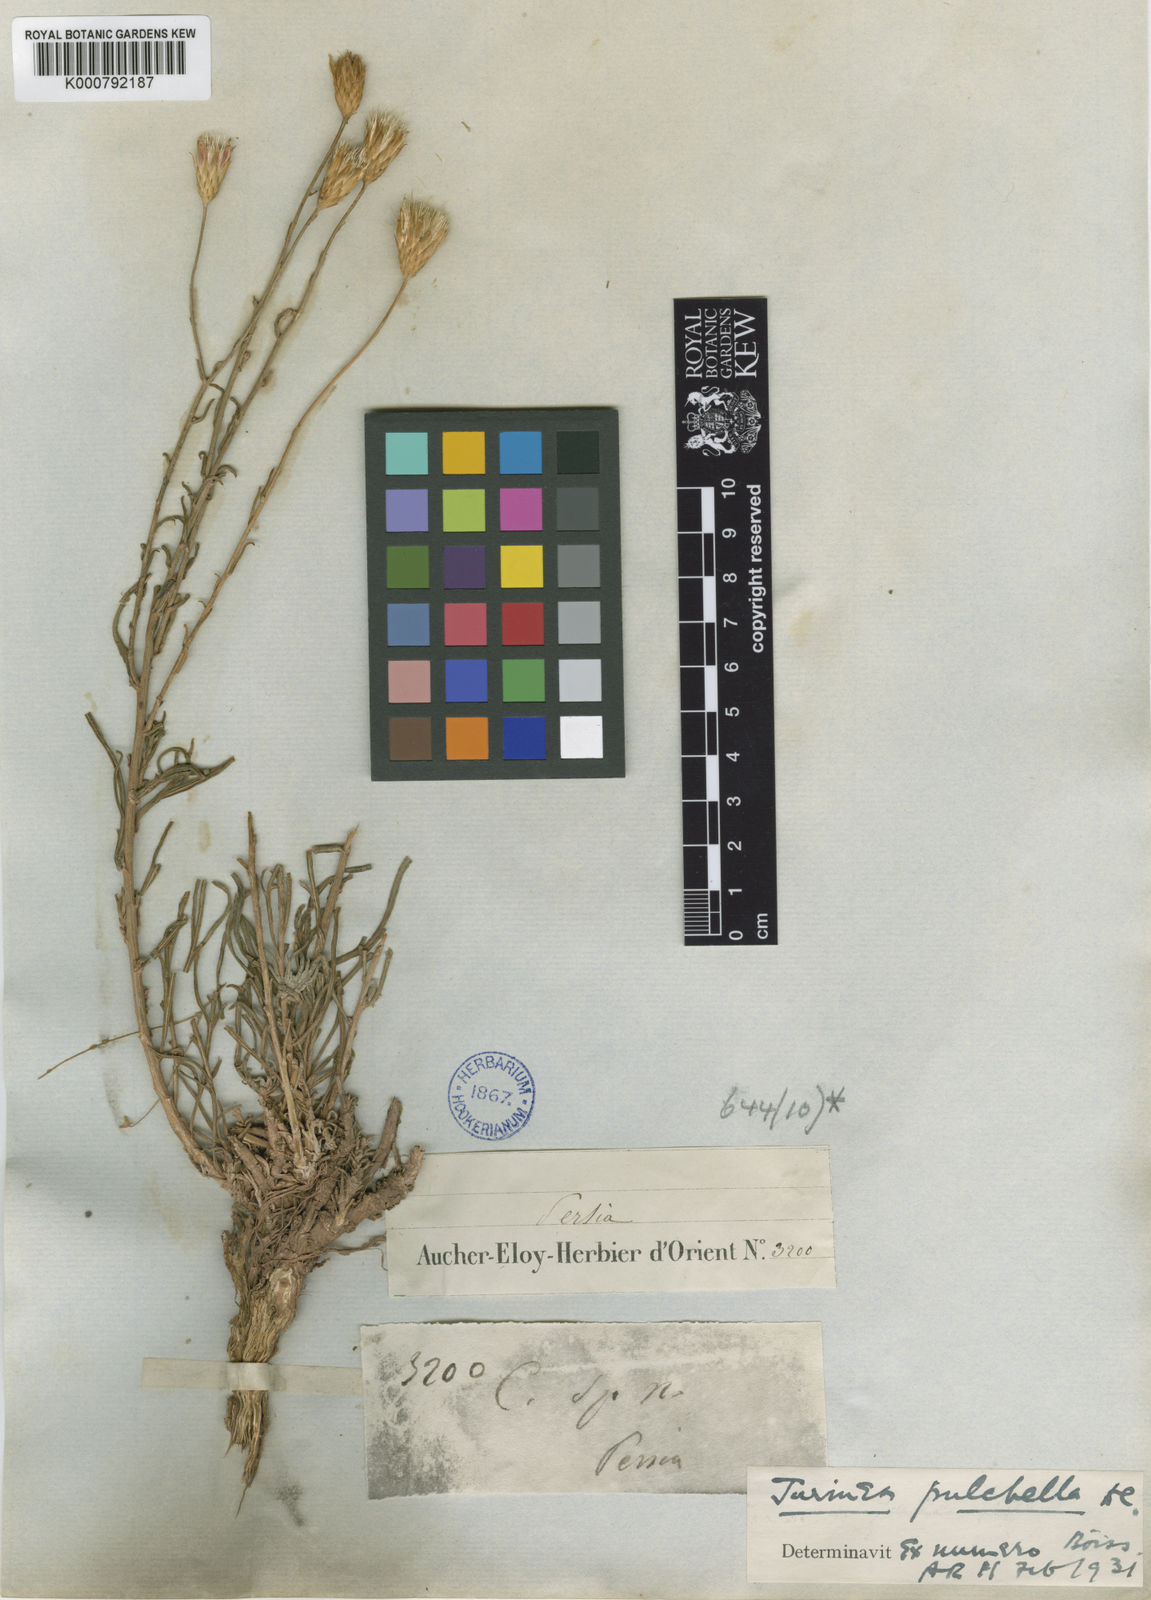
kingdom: Plantae
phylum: Tracheophyta
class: Magnoliopsida
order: Asterales
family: Asteraceae
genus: Jurinea
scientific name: Jurinea pulchella
